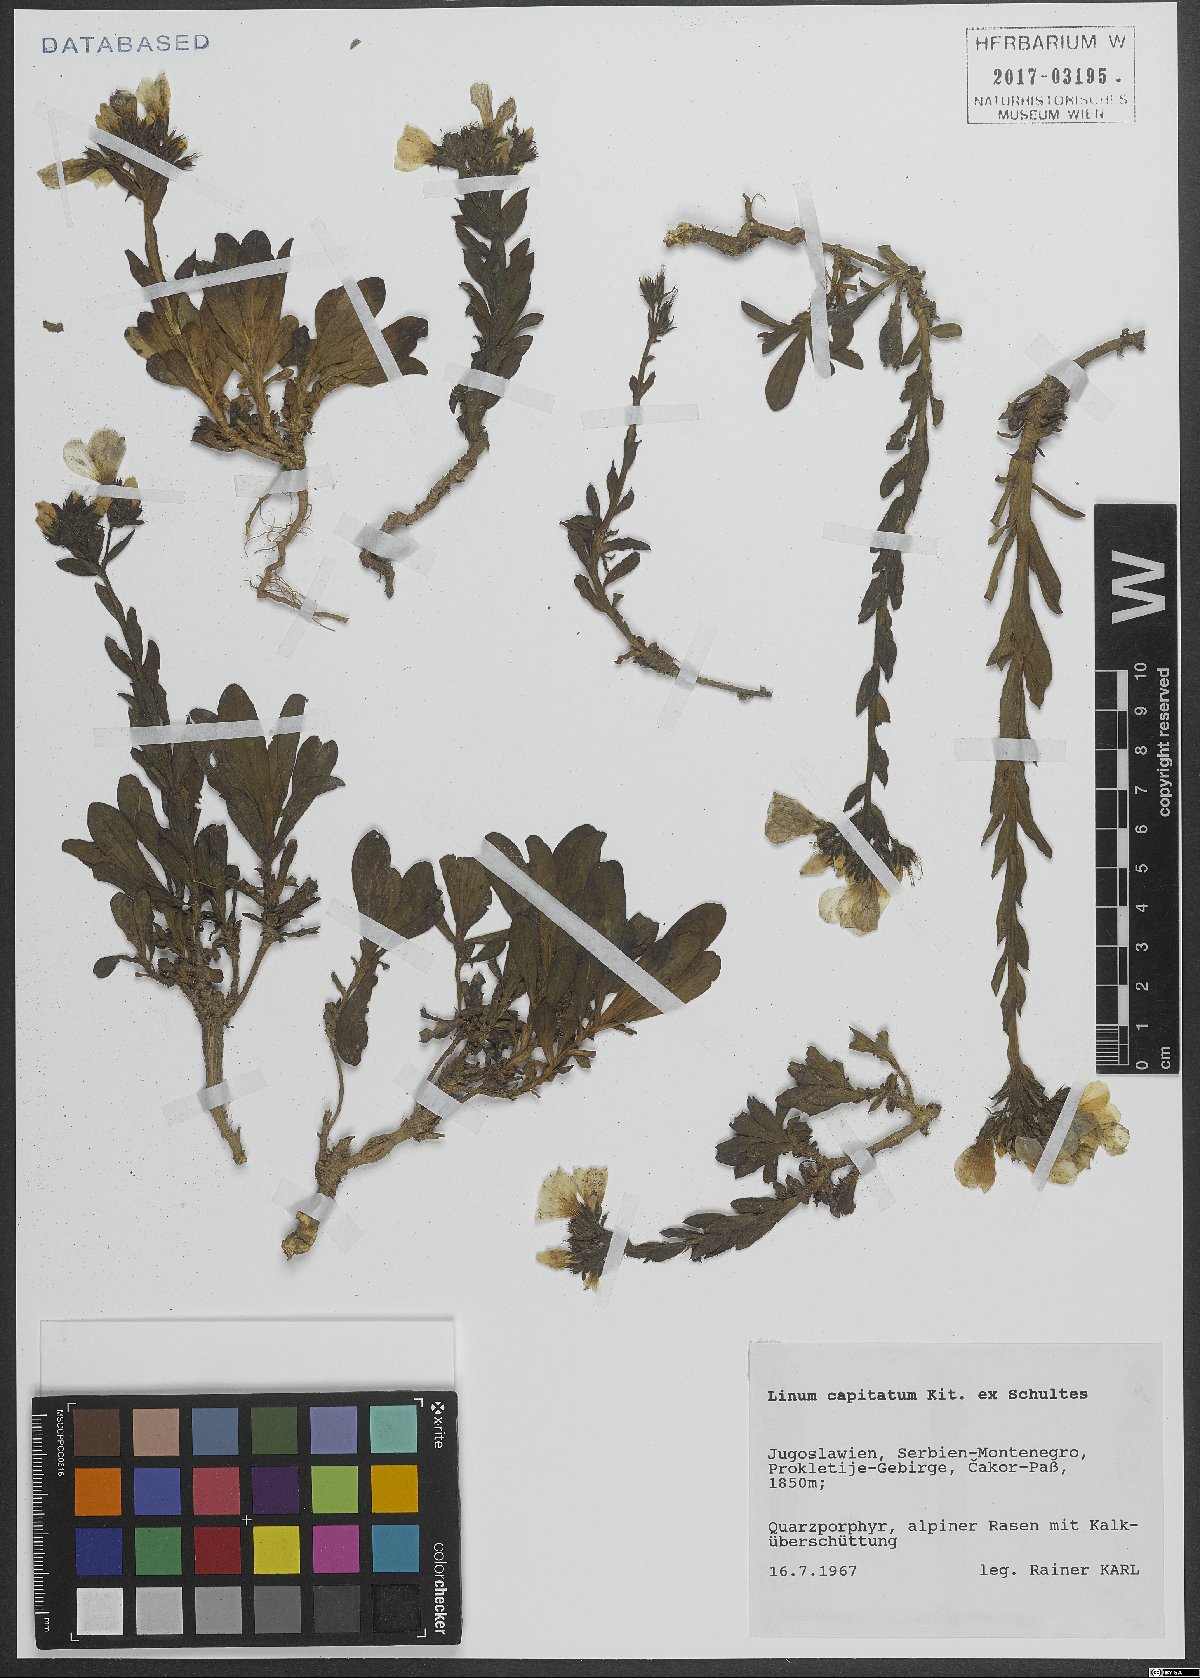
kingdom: Plantae
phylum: Tracheophyta
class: Magnoliopsida
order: Malpighiales
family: Linaceae
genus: Linum
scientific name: Linum capitatum
